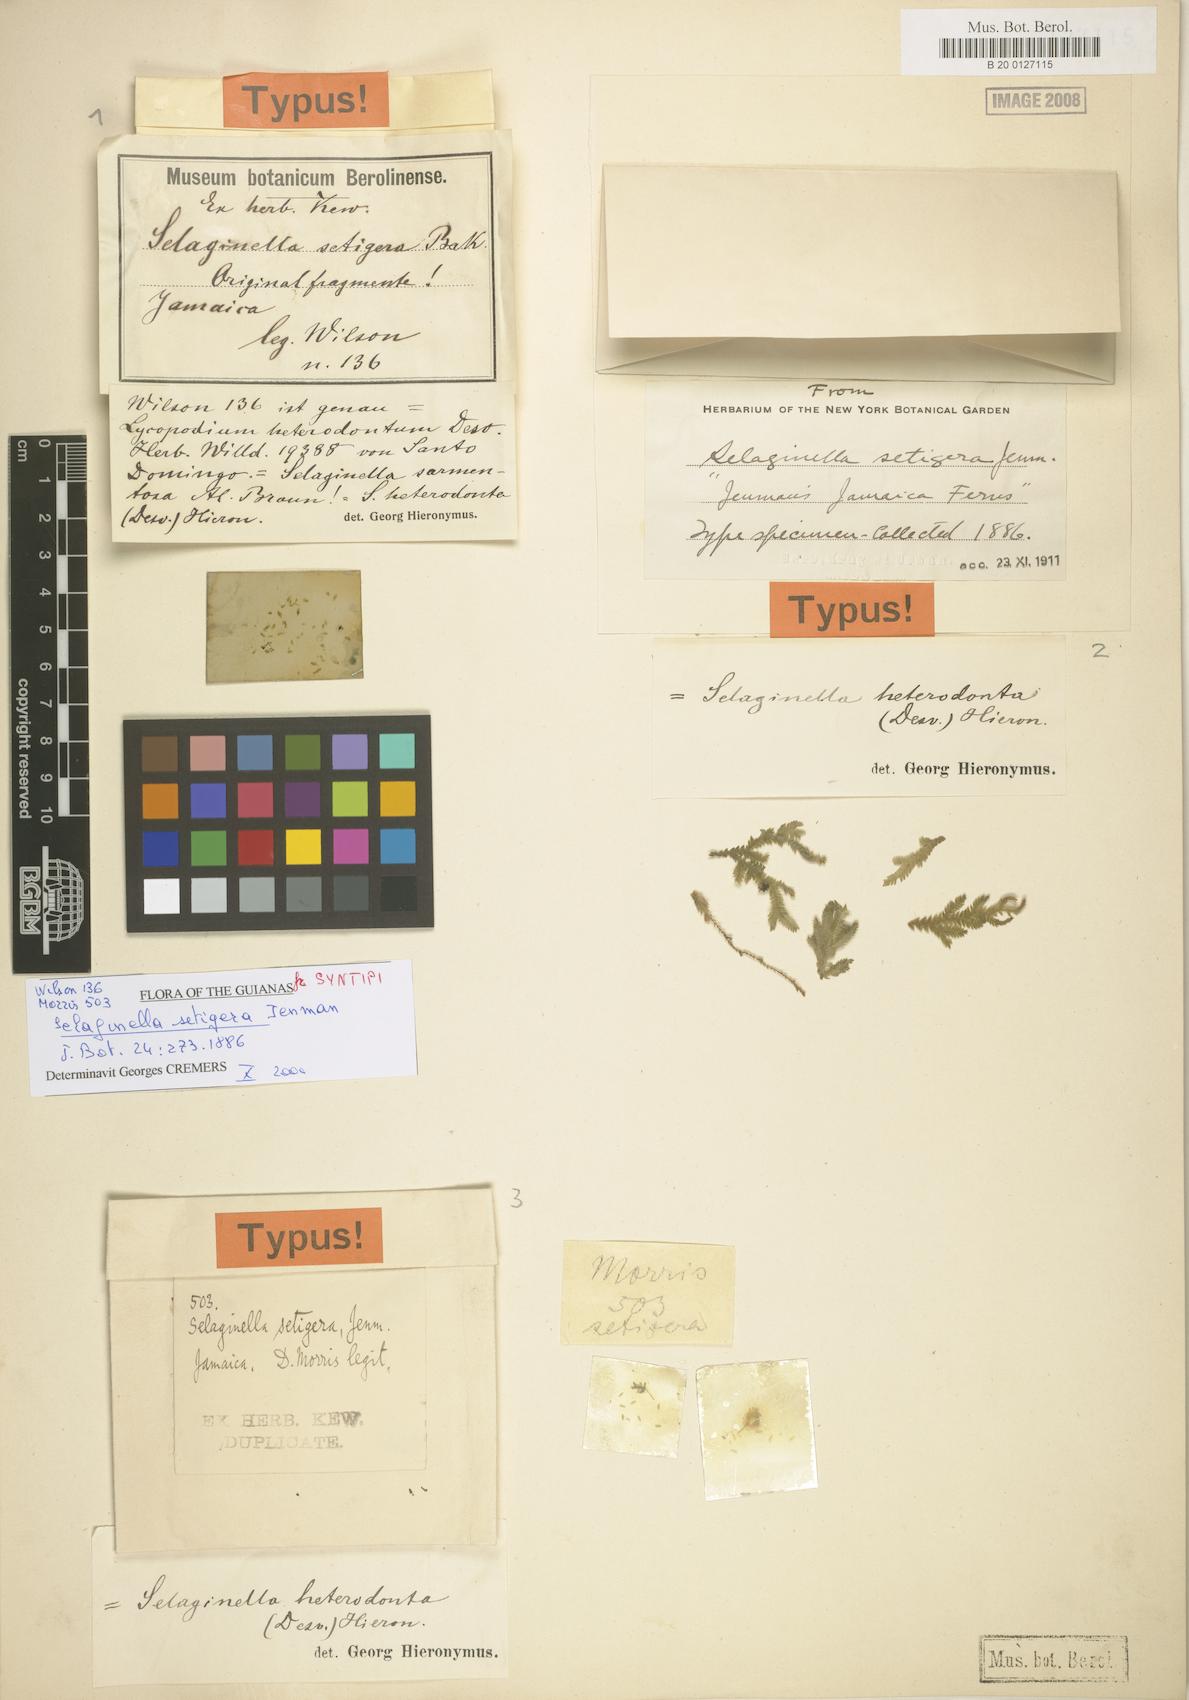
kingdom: Plantae
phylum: Tracheophyta
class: Lycopodiopsida
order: Selaginellales
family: Selaginellaceae
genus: Selaginella
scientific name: Selaginella heterodonta
